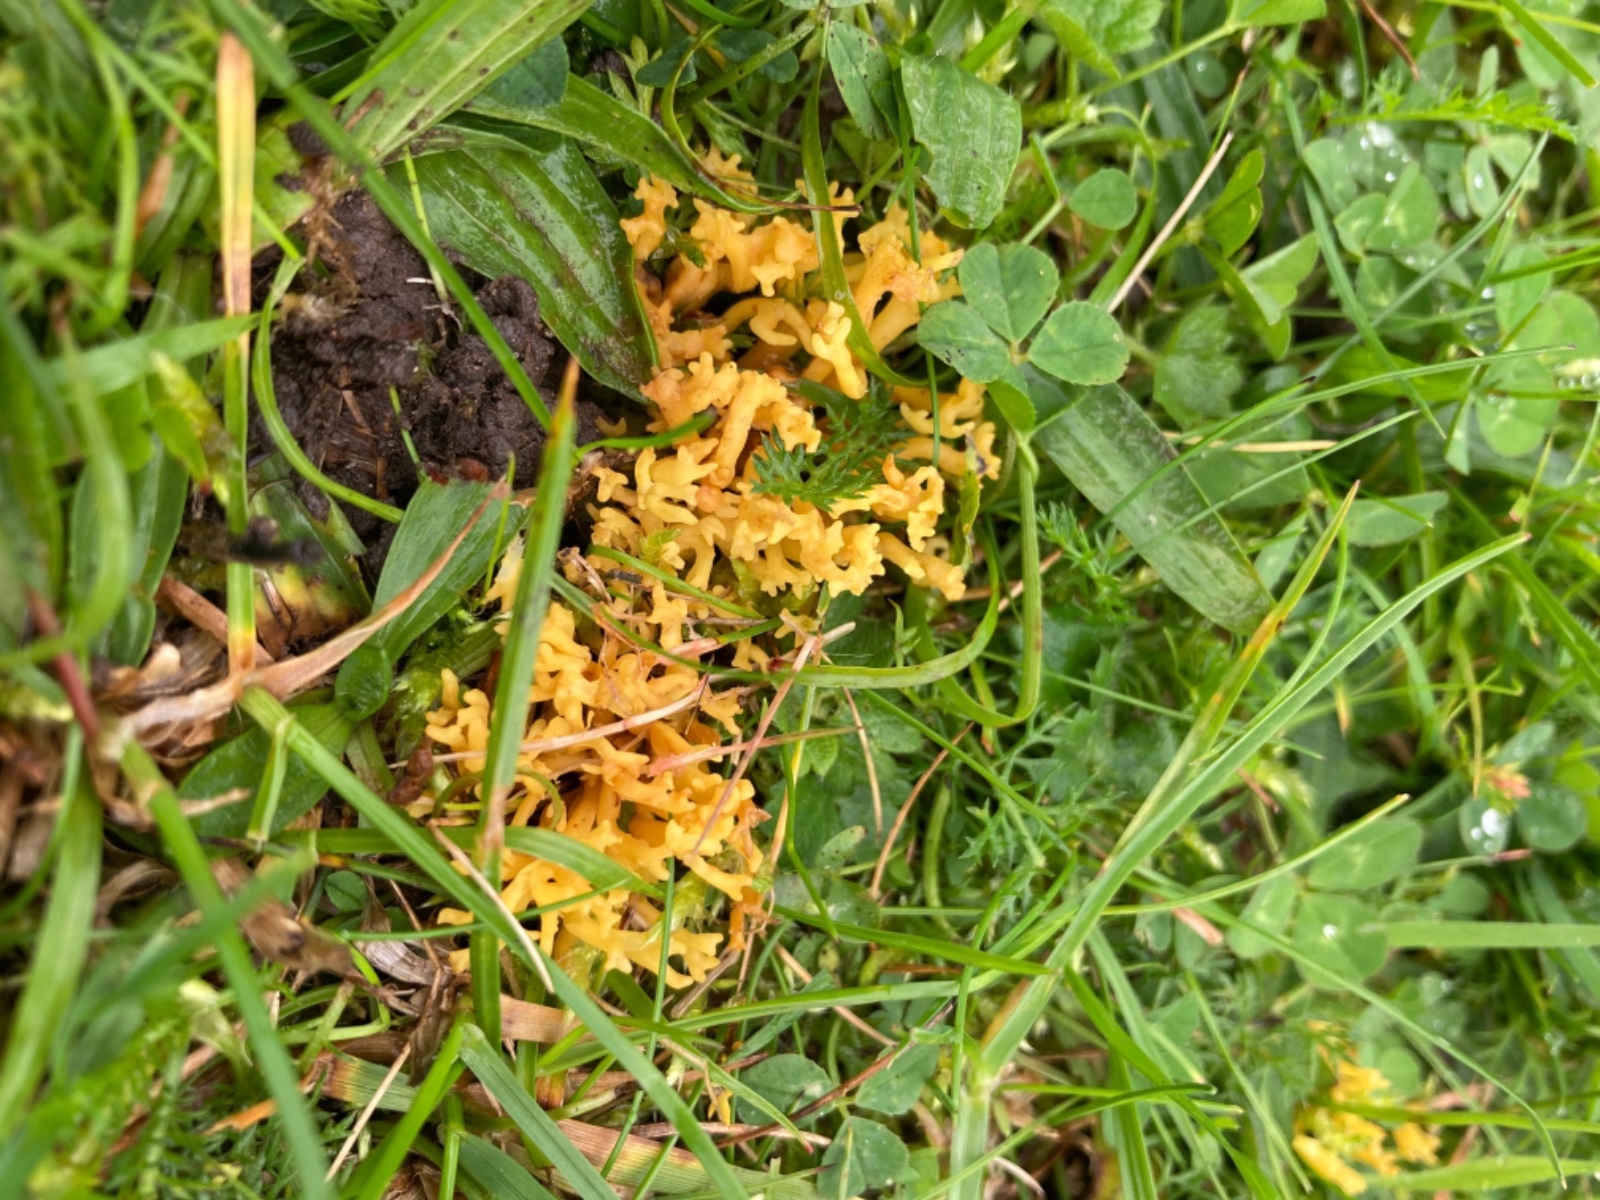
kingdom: Fungi
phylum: Basidiomycota
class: Agaricomycetes
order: Agaricales
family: Clavariaceae
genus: Clavulinopsis
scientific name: Clavulinopsis corniculata
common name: eng-køllesvamp
